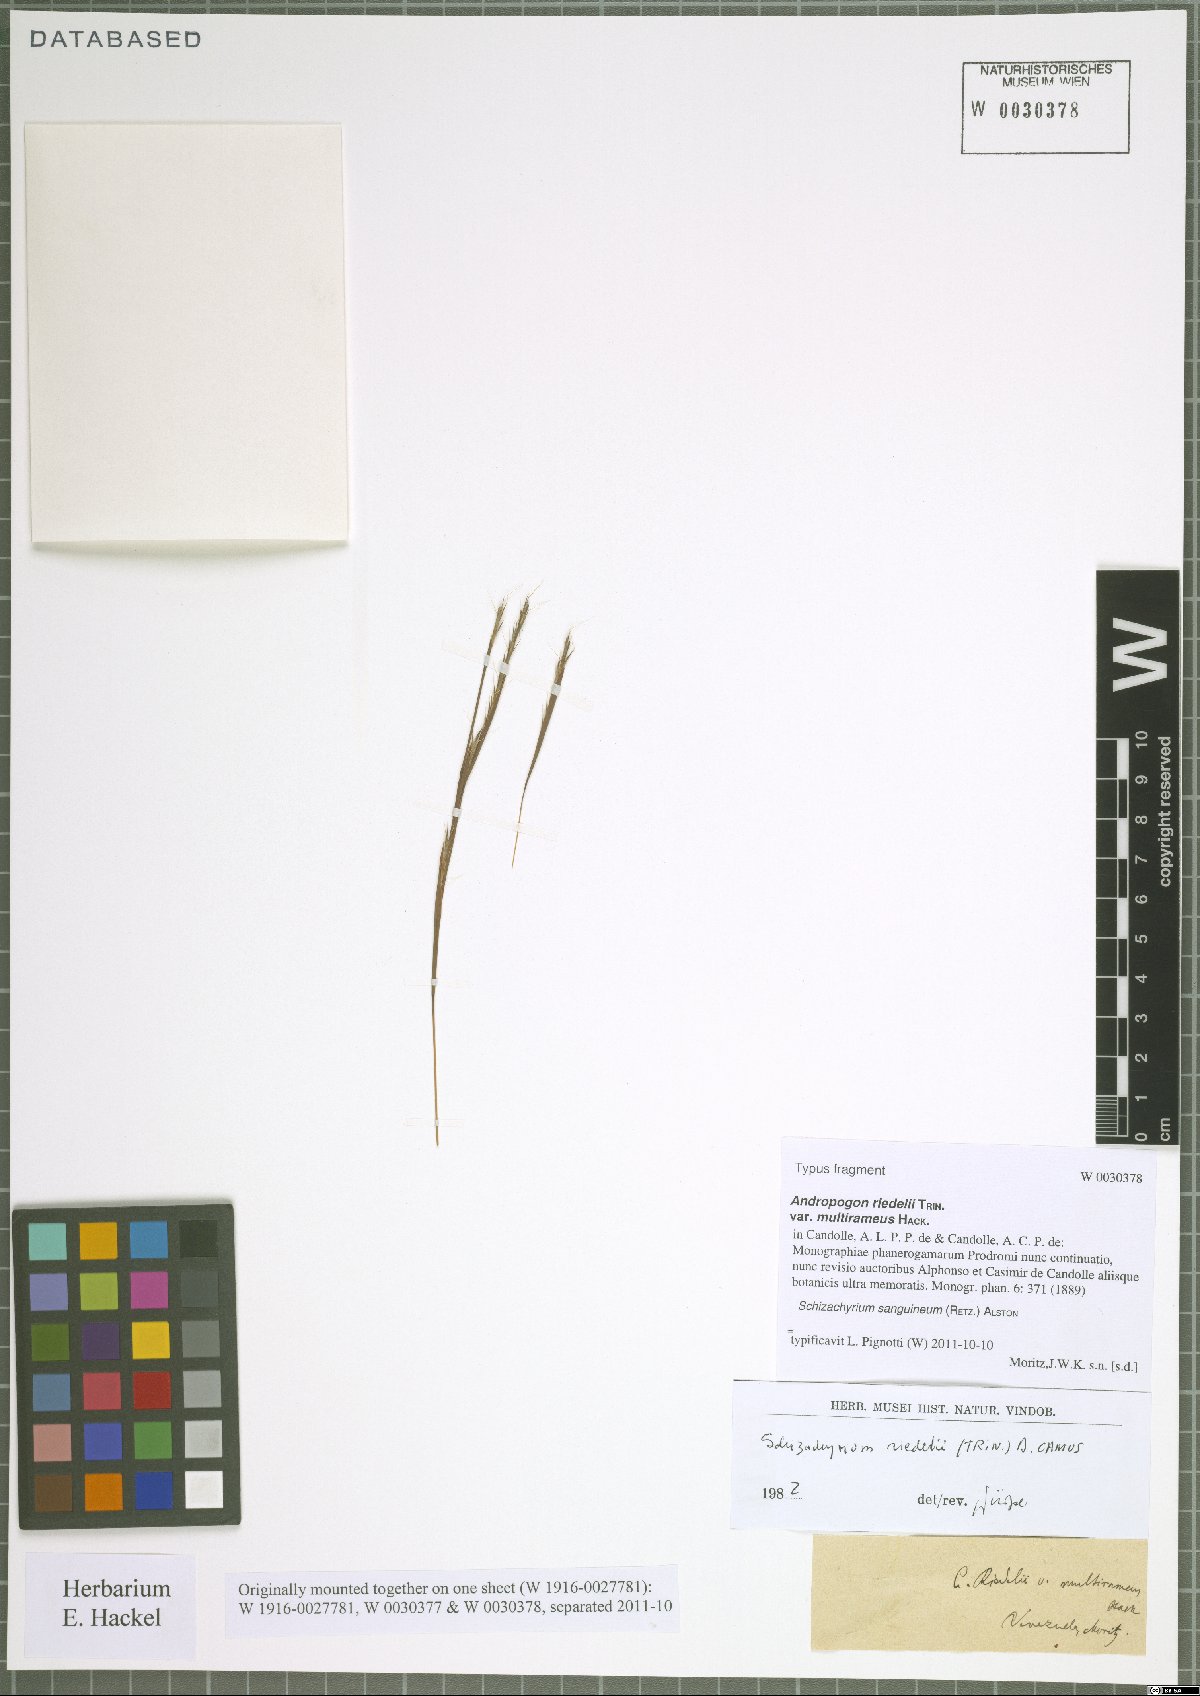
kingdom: Plantae
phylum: Tracheophyta
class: Liliopsida
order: Poales
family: Poaceae
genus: Schizachyrium
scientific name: Schizachyrium sanguineum
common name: Crimson bluestem
